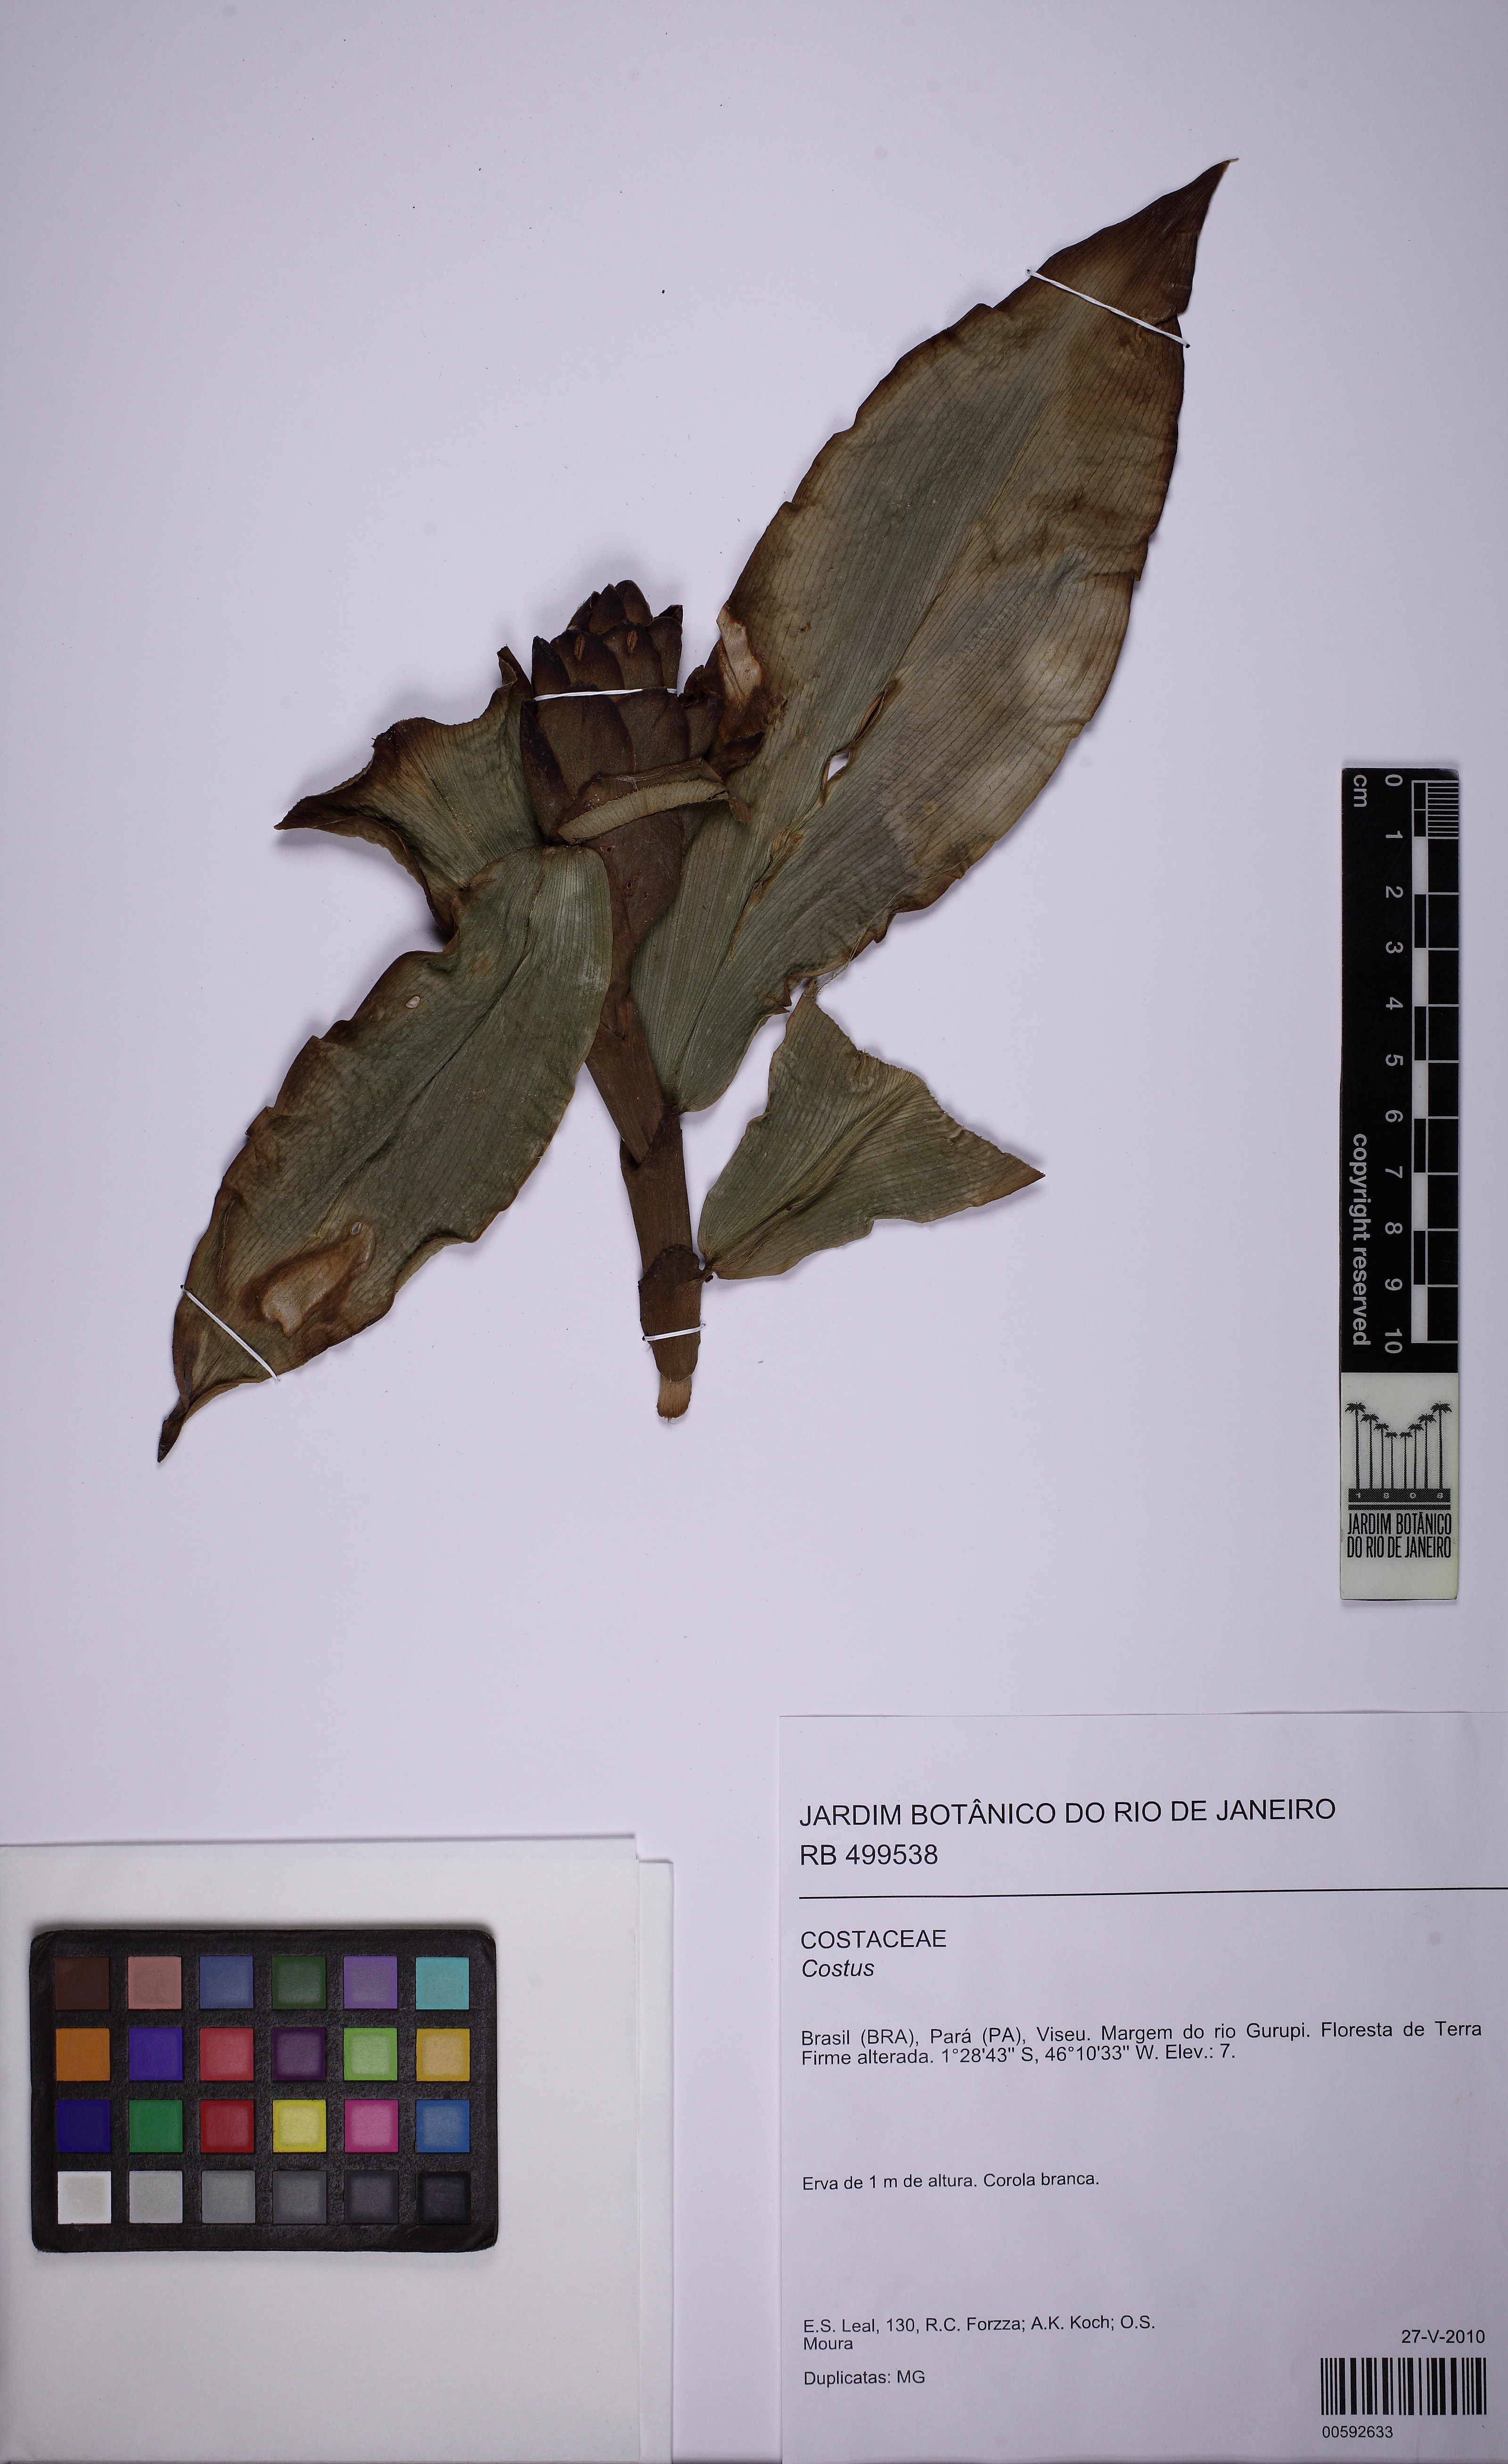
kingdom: Plantae
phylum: Tracheophyta
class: Liliopsida
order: Zingiberales
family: Costaceae
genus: Costus
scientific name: Costus
